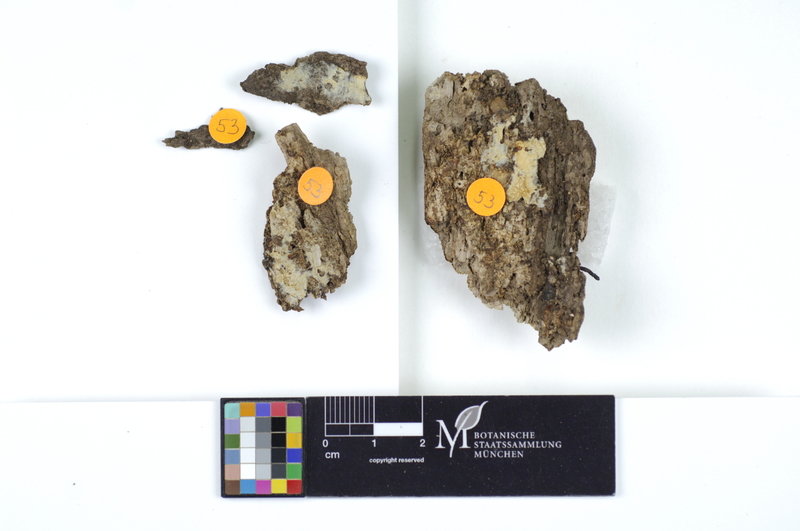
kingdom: Fungi
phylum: Basidiomycota
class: Agaricomycetes
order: Polyporales
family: Irpicaceae
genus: Ceriporia
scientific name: Ceriporia excelsa
